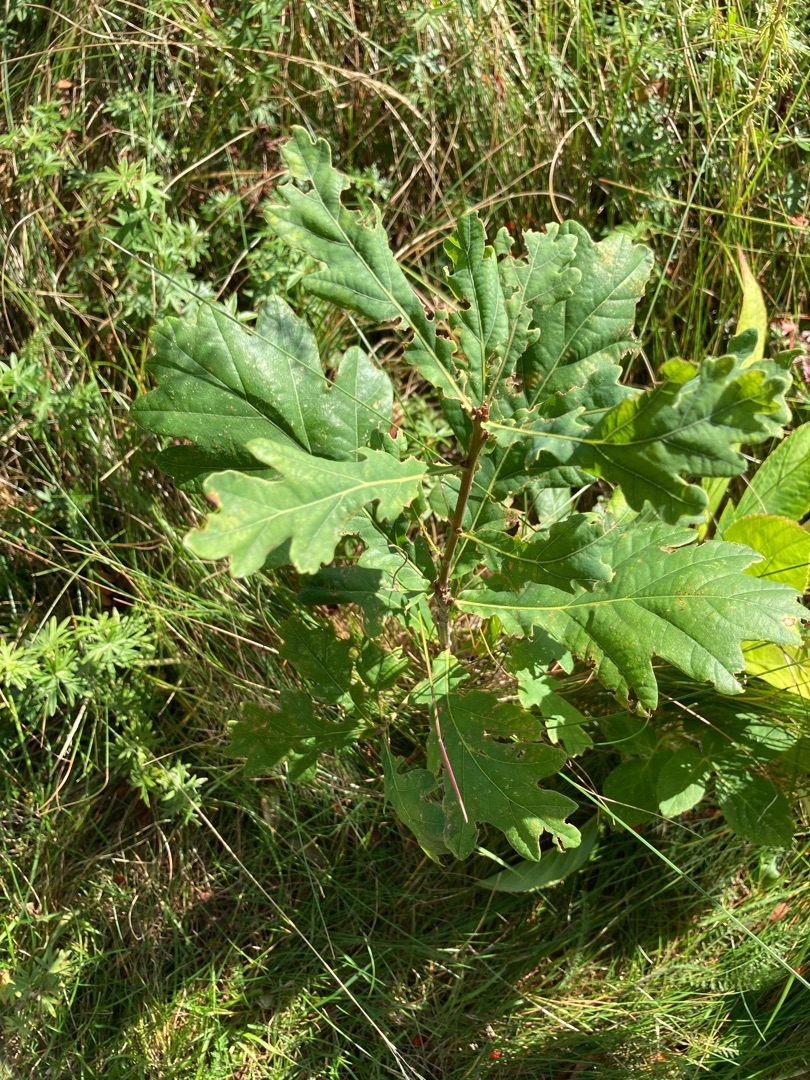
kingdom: Plantae
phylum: Tracheophyta
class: Magnoliopsida
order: Fagales
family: Fagaceae
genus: Quercus
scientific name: Quercus robur
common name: Stilk-eg/almindelig eg
